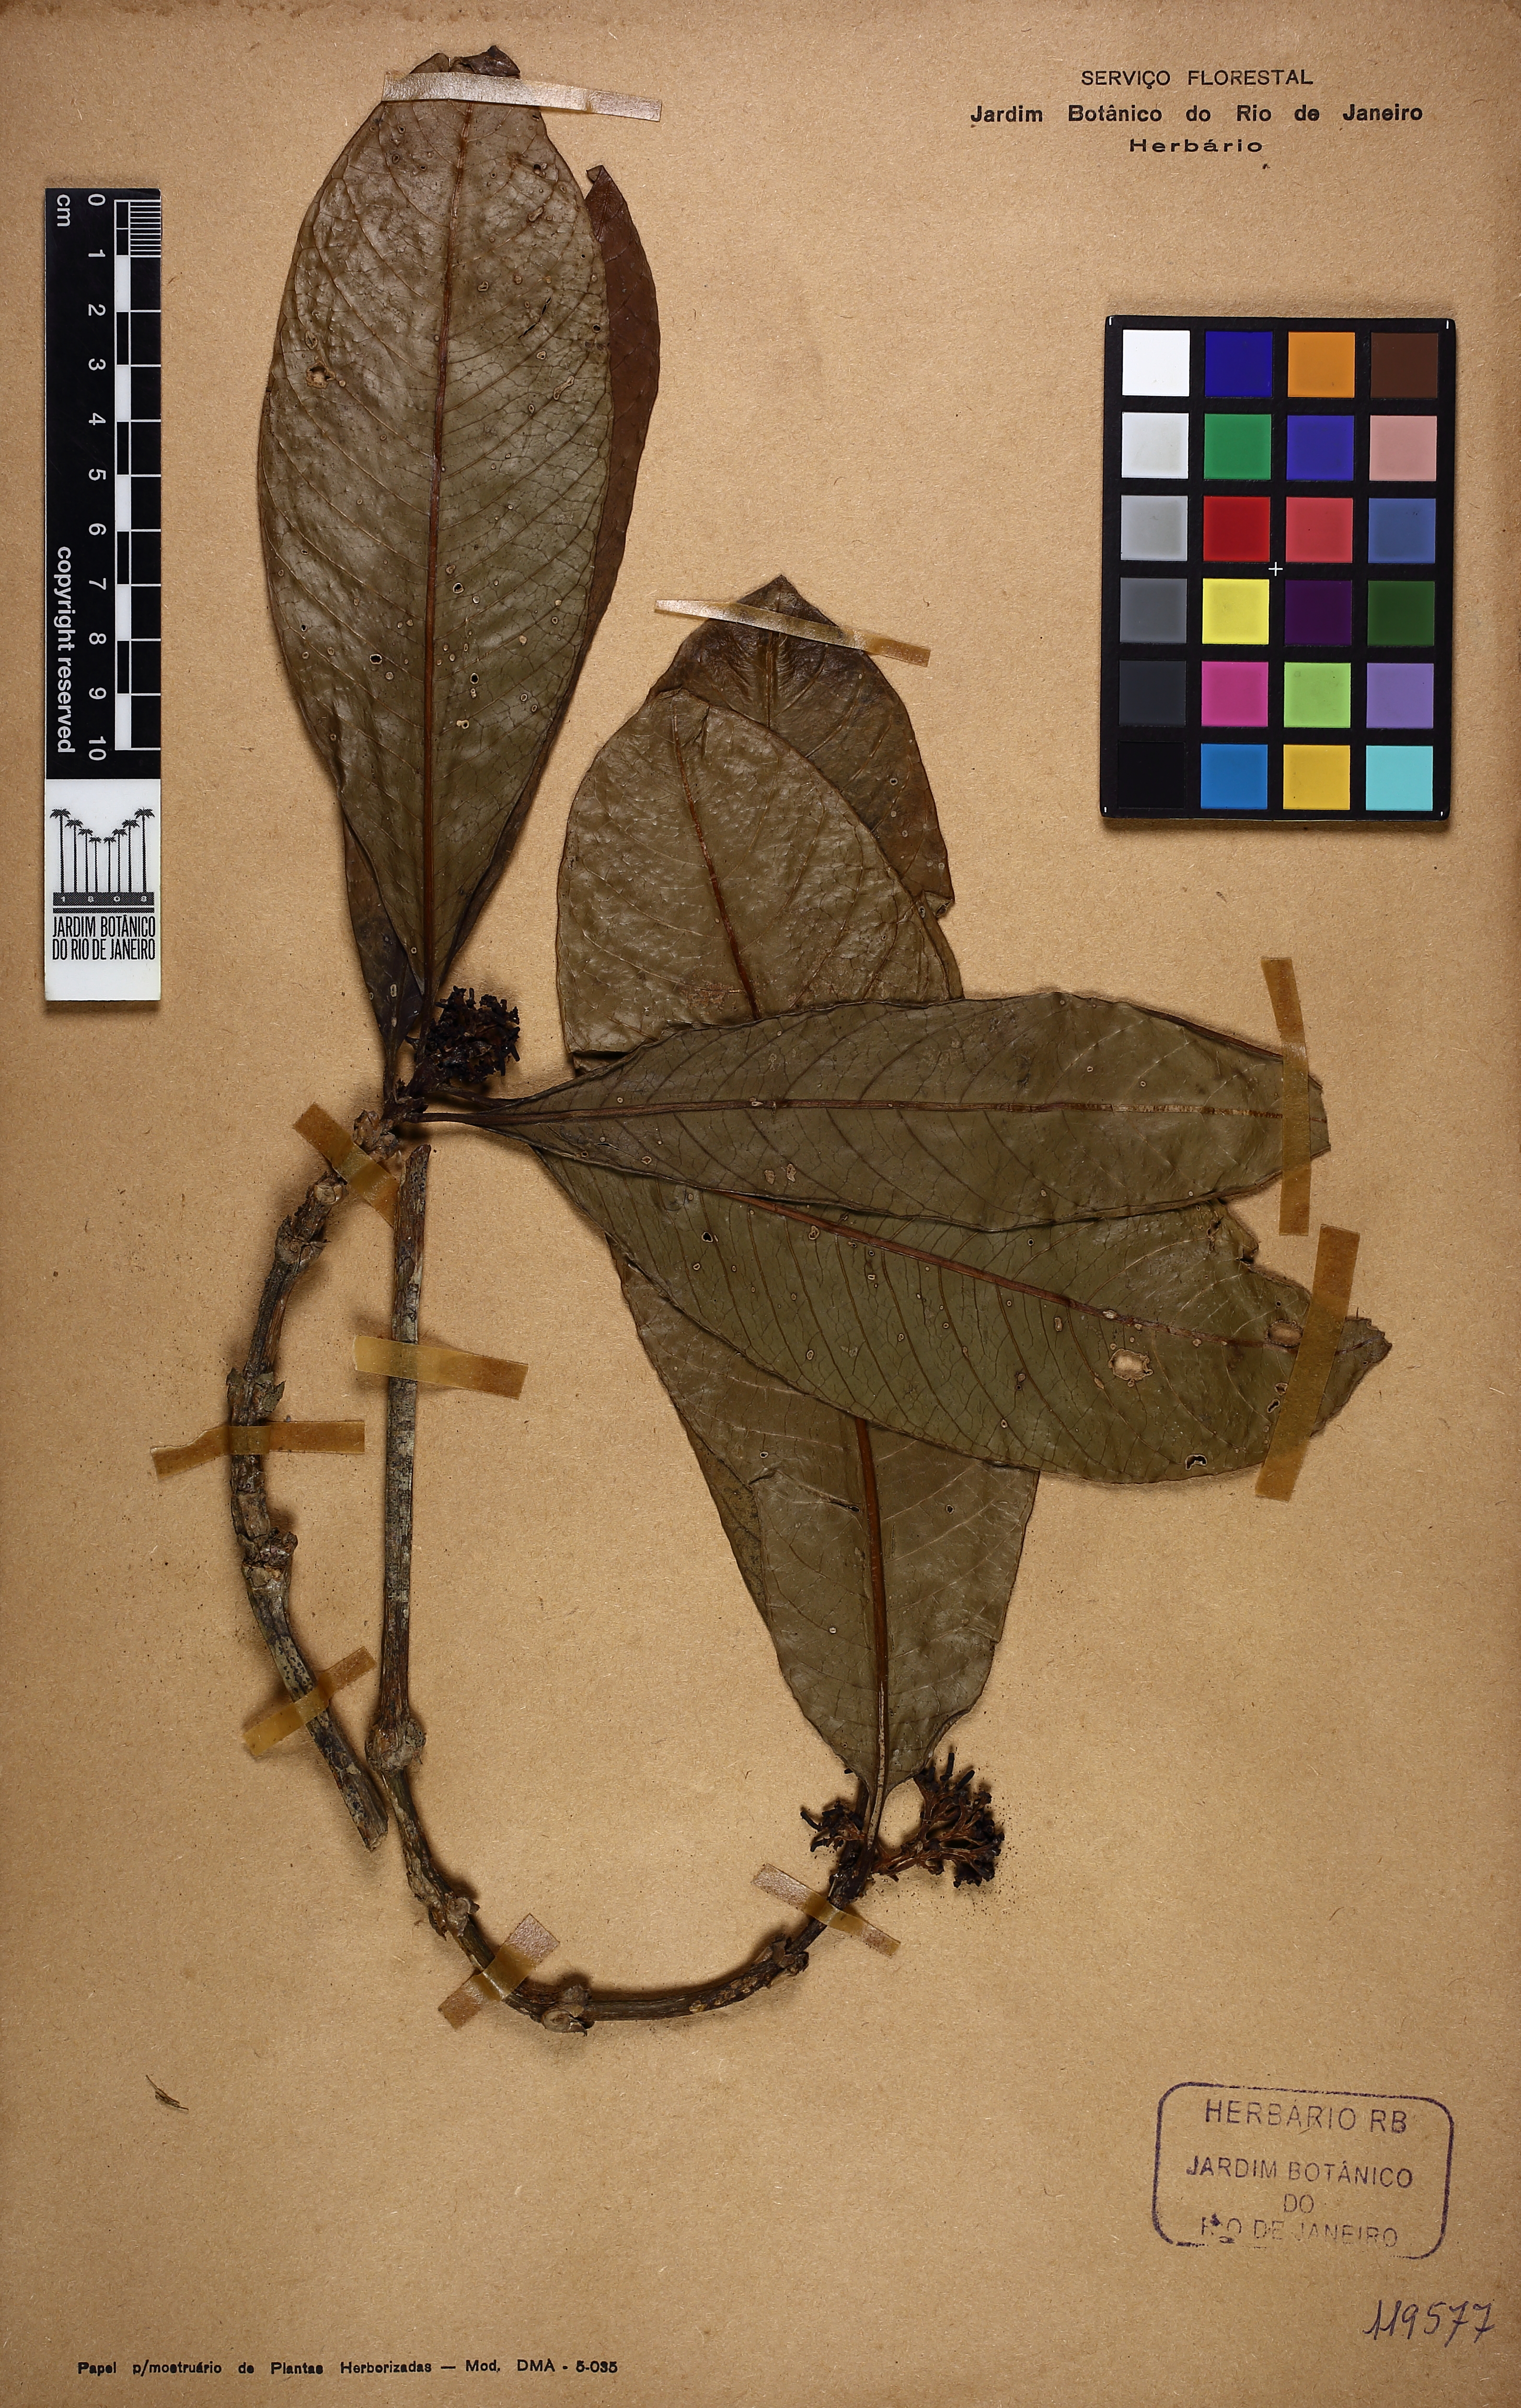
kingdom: Plantae
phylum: Tracheophyta
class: Magnoliopsida
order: Gentianales
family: Rubiaceae
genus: Psychotria
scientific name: Psychotria
